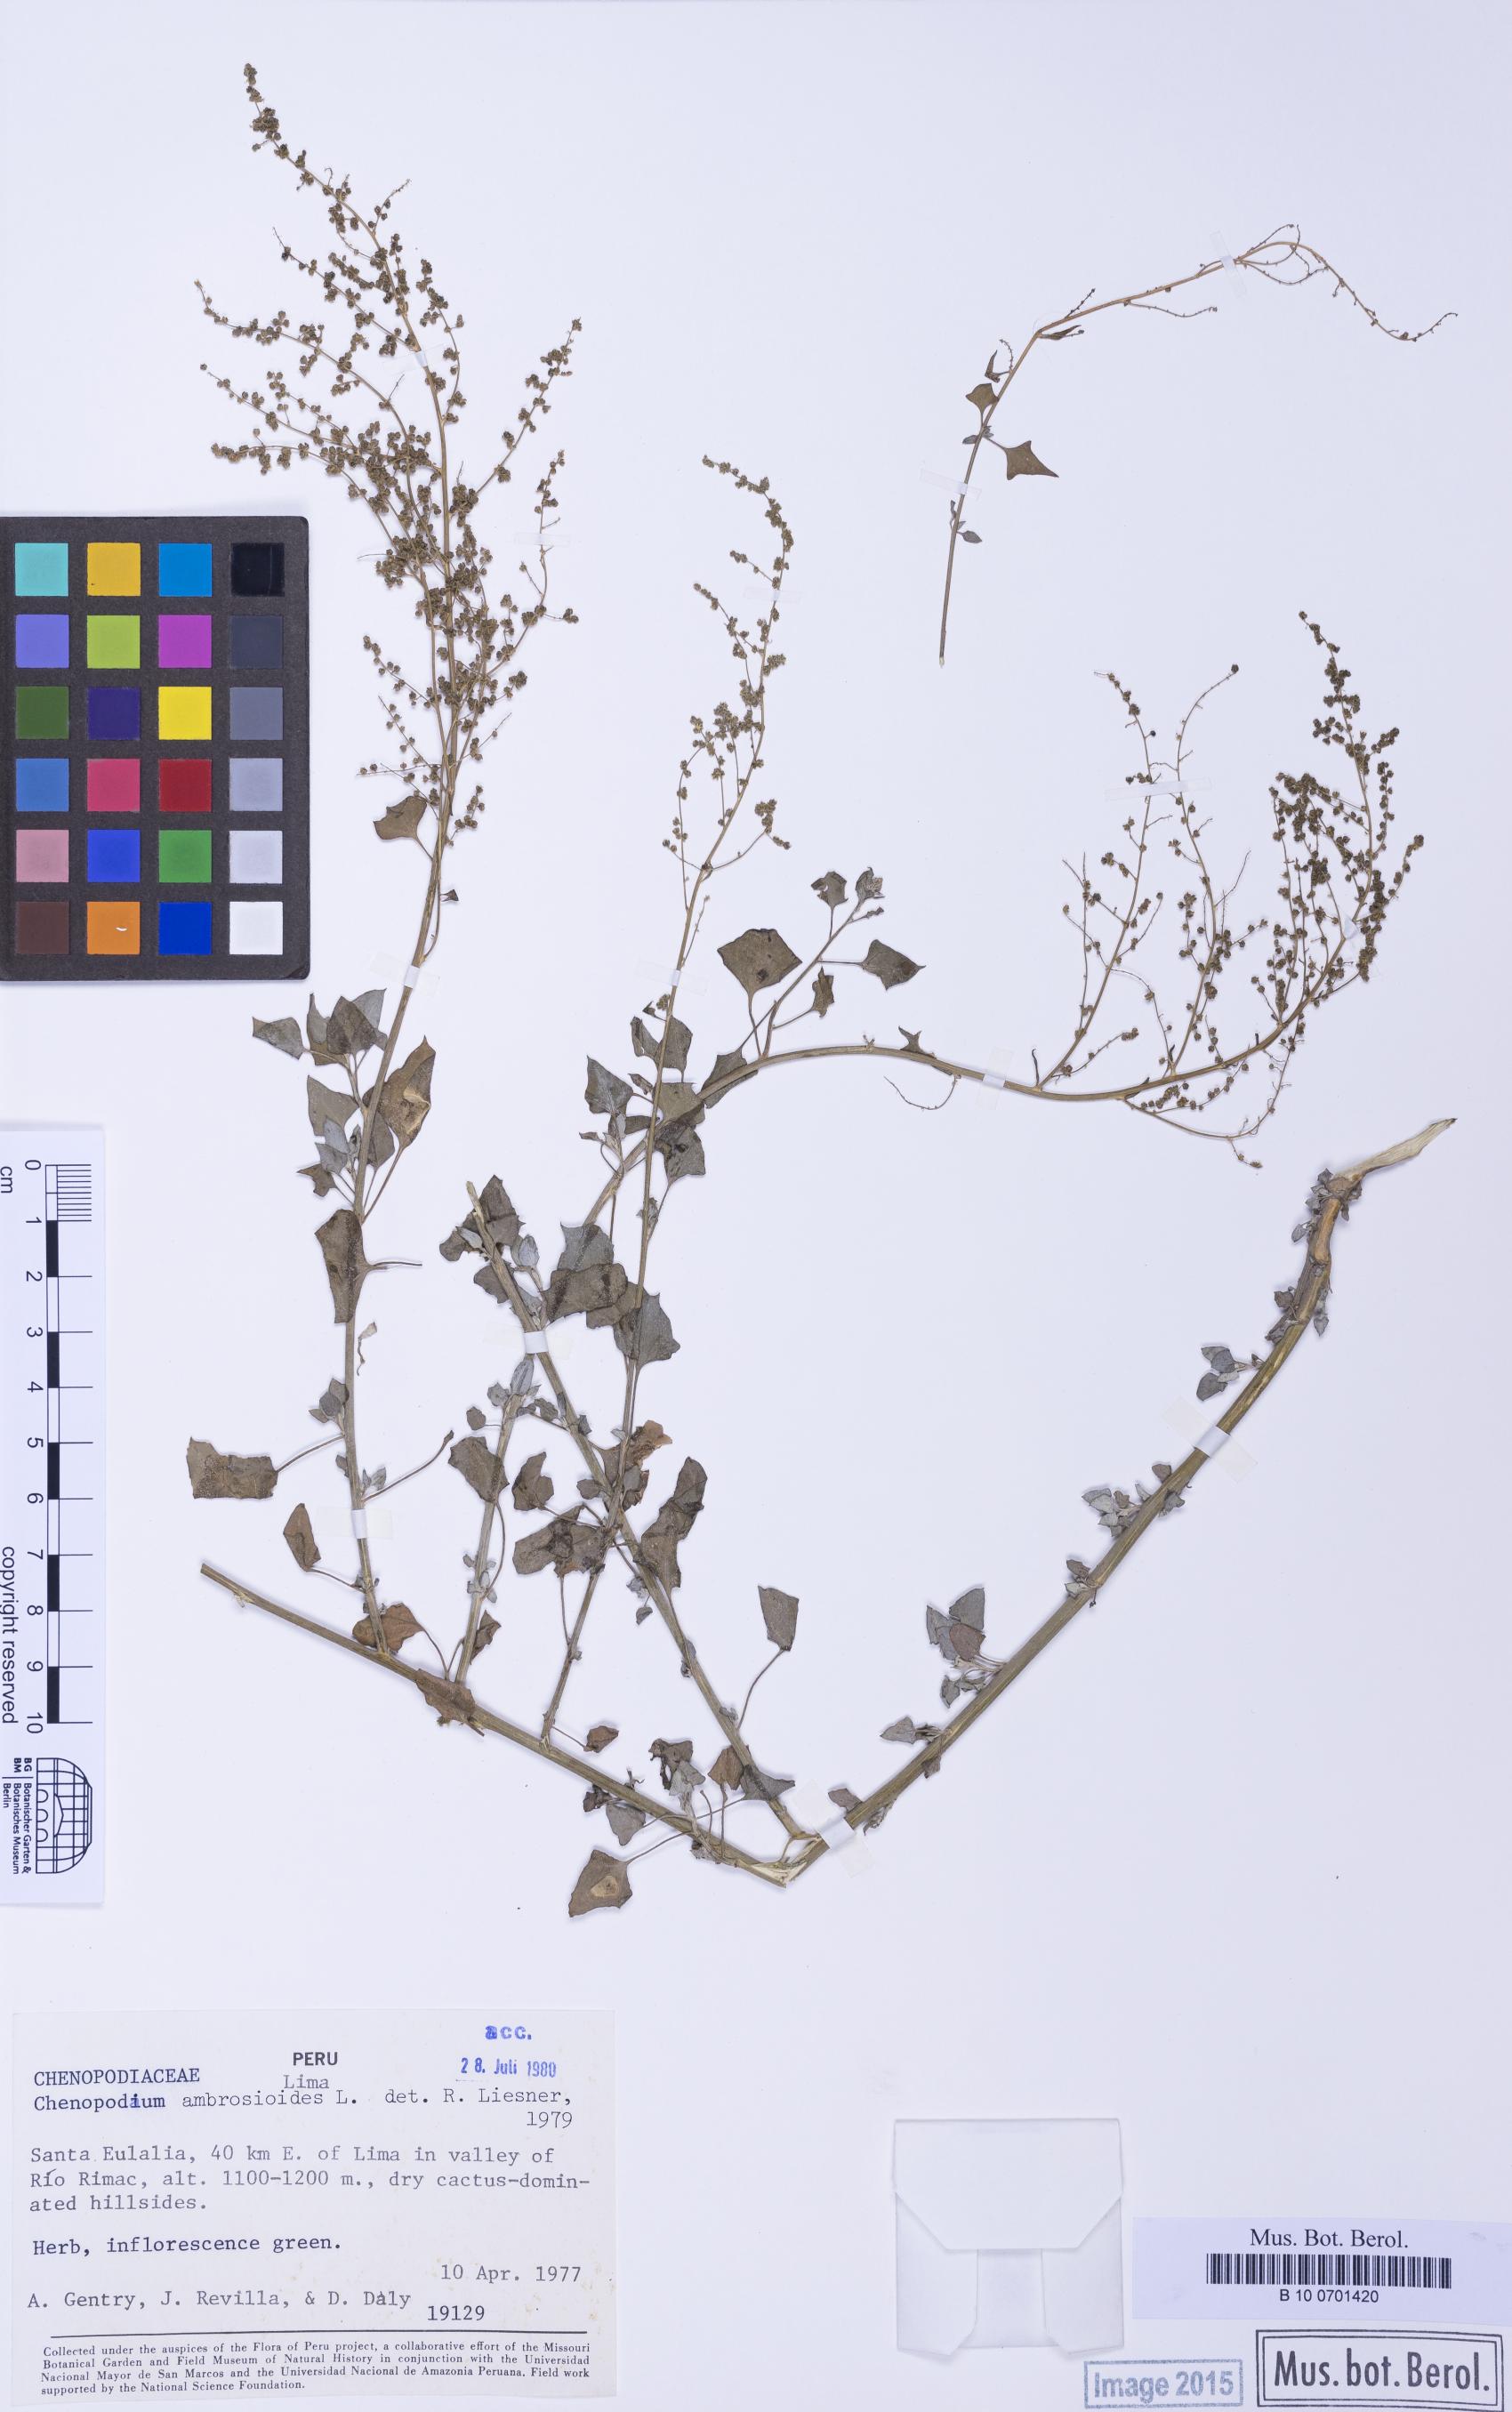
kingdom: Plantae
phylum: Tracheophyta
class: Magnoliopsida
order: Caryophyllales
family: Amaranthaceae
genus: Chenopodium
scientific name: Chenopodium petiolare
